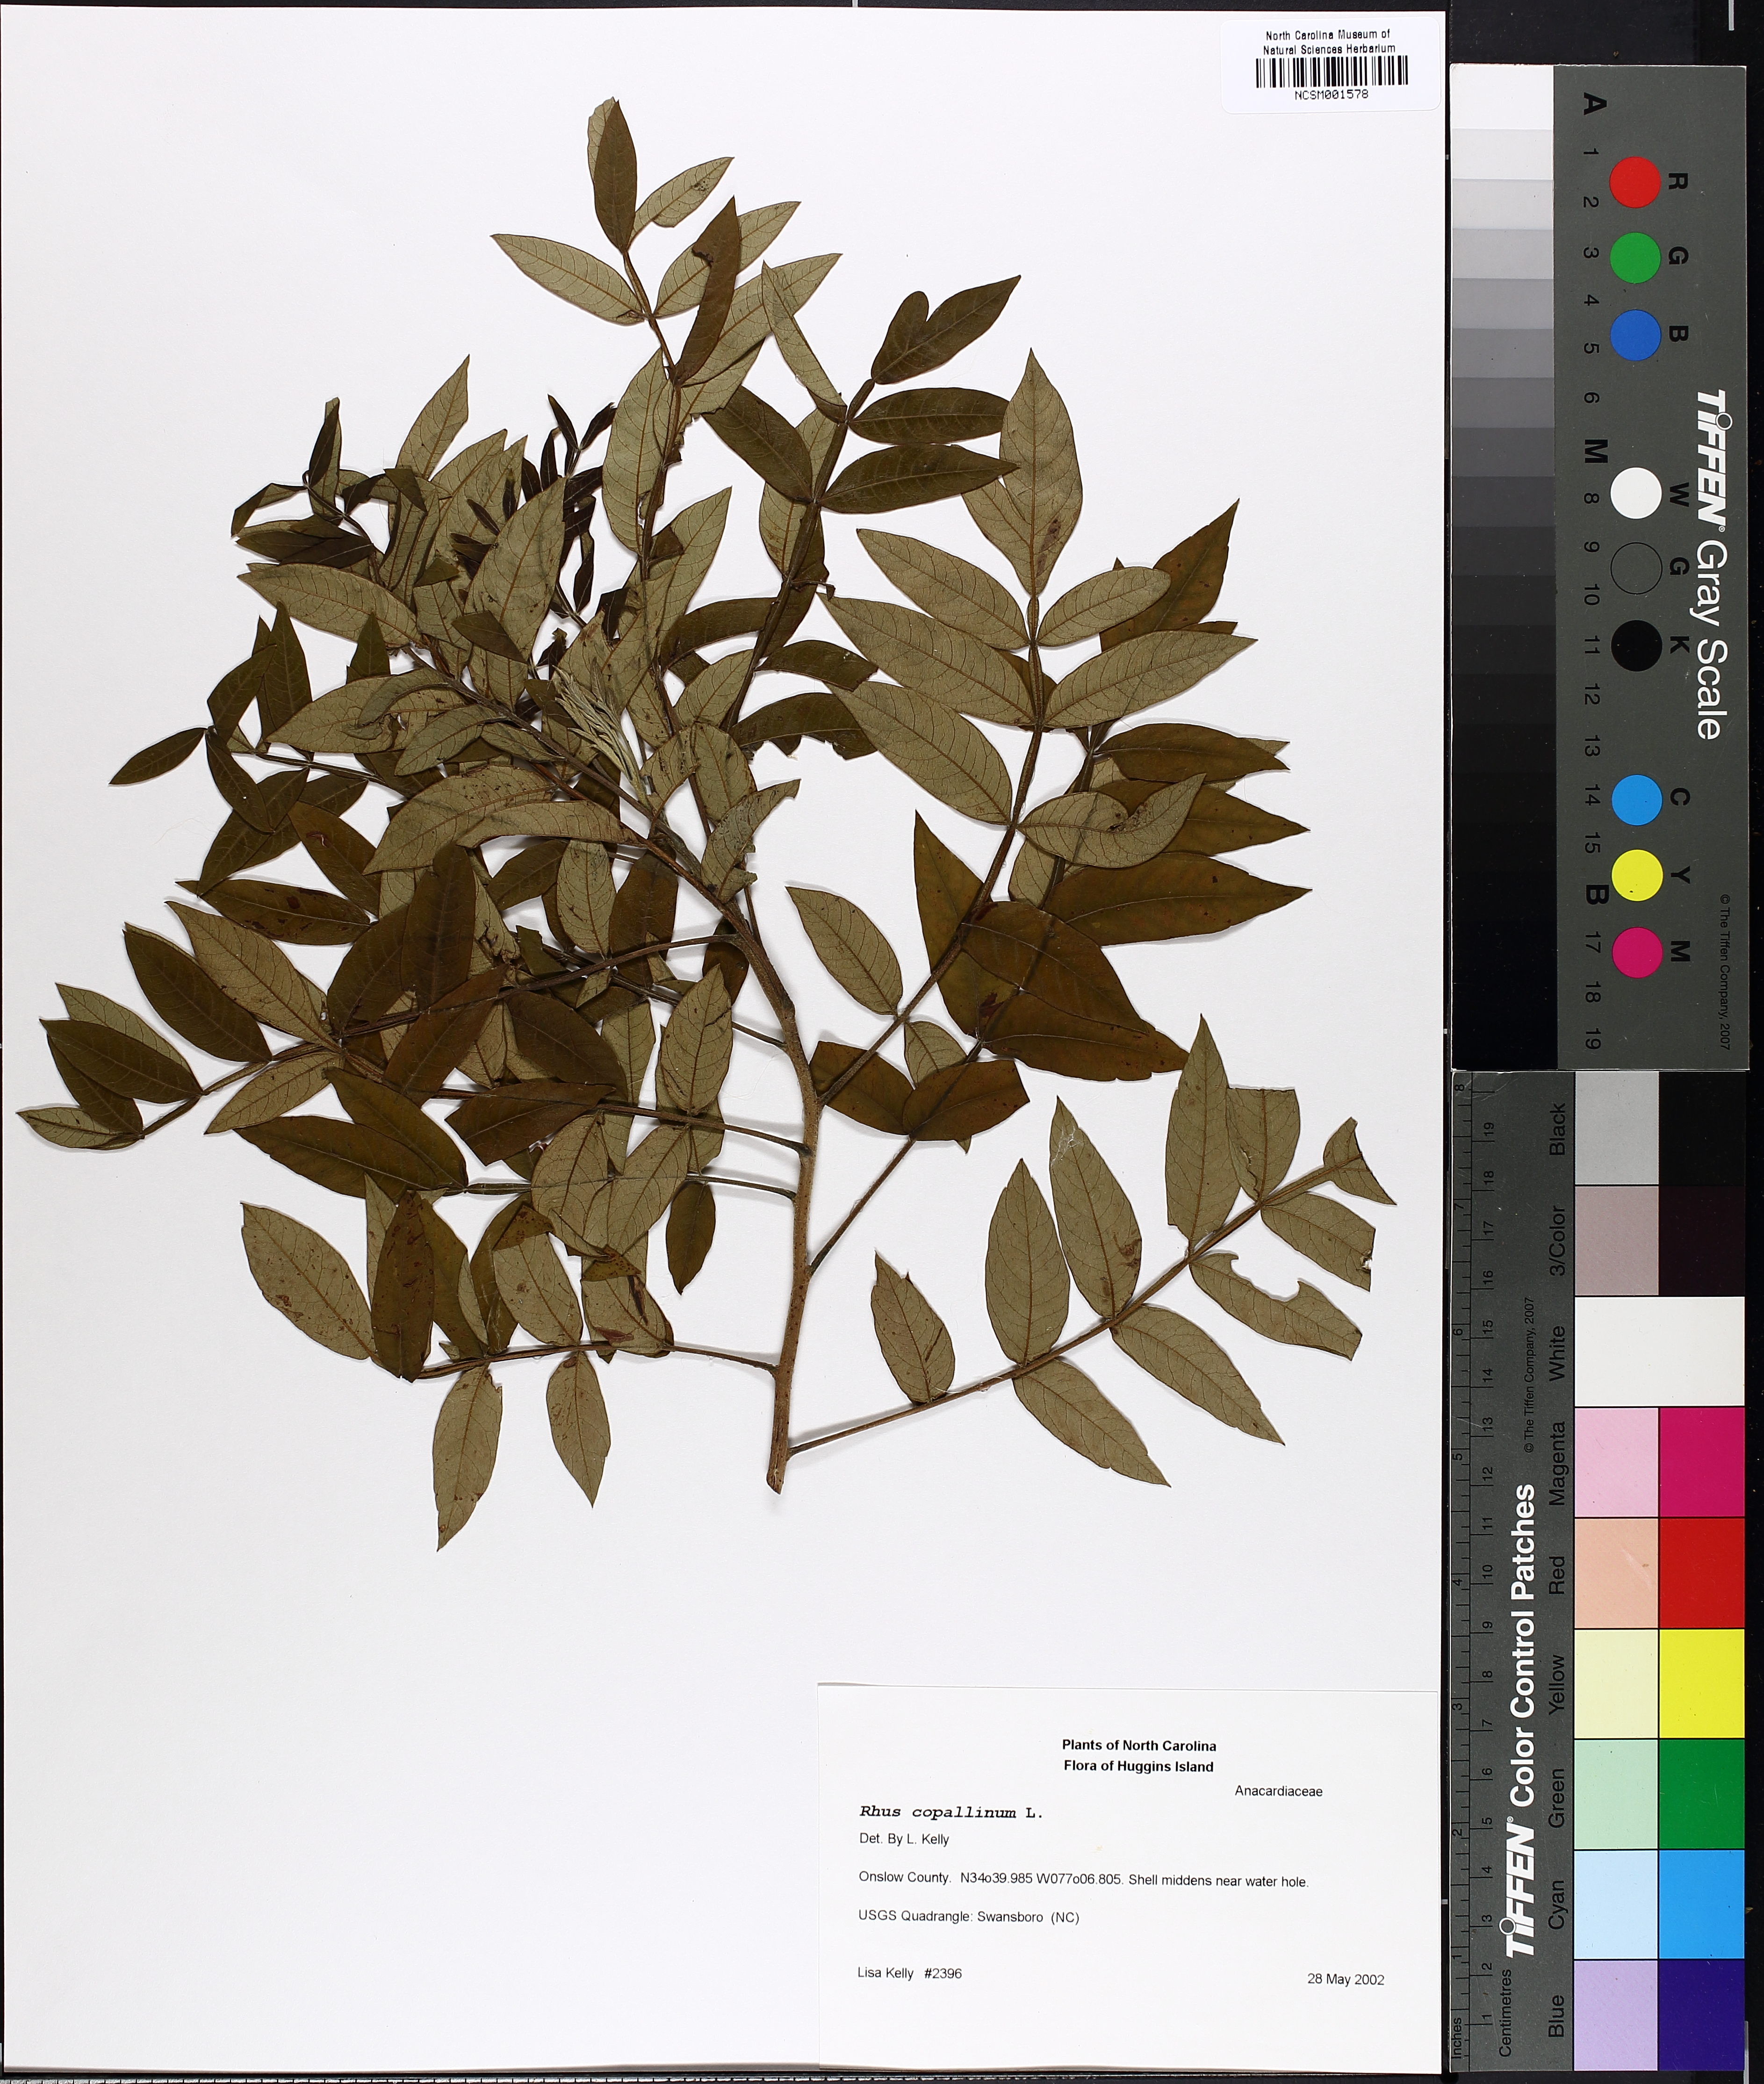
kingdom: Plantae
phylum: Tracheophyta
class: Magnoliopsida
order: Sapindales
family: Anacardiaceae
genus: Rhus
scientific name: Rhus copallina
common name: Shining sumac
